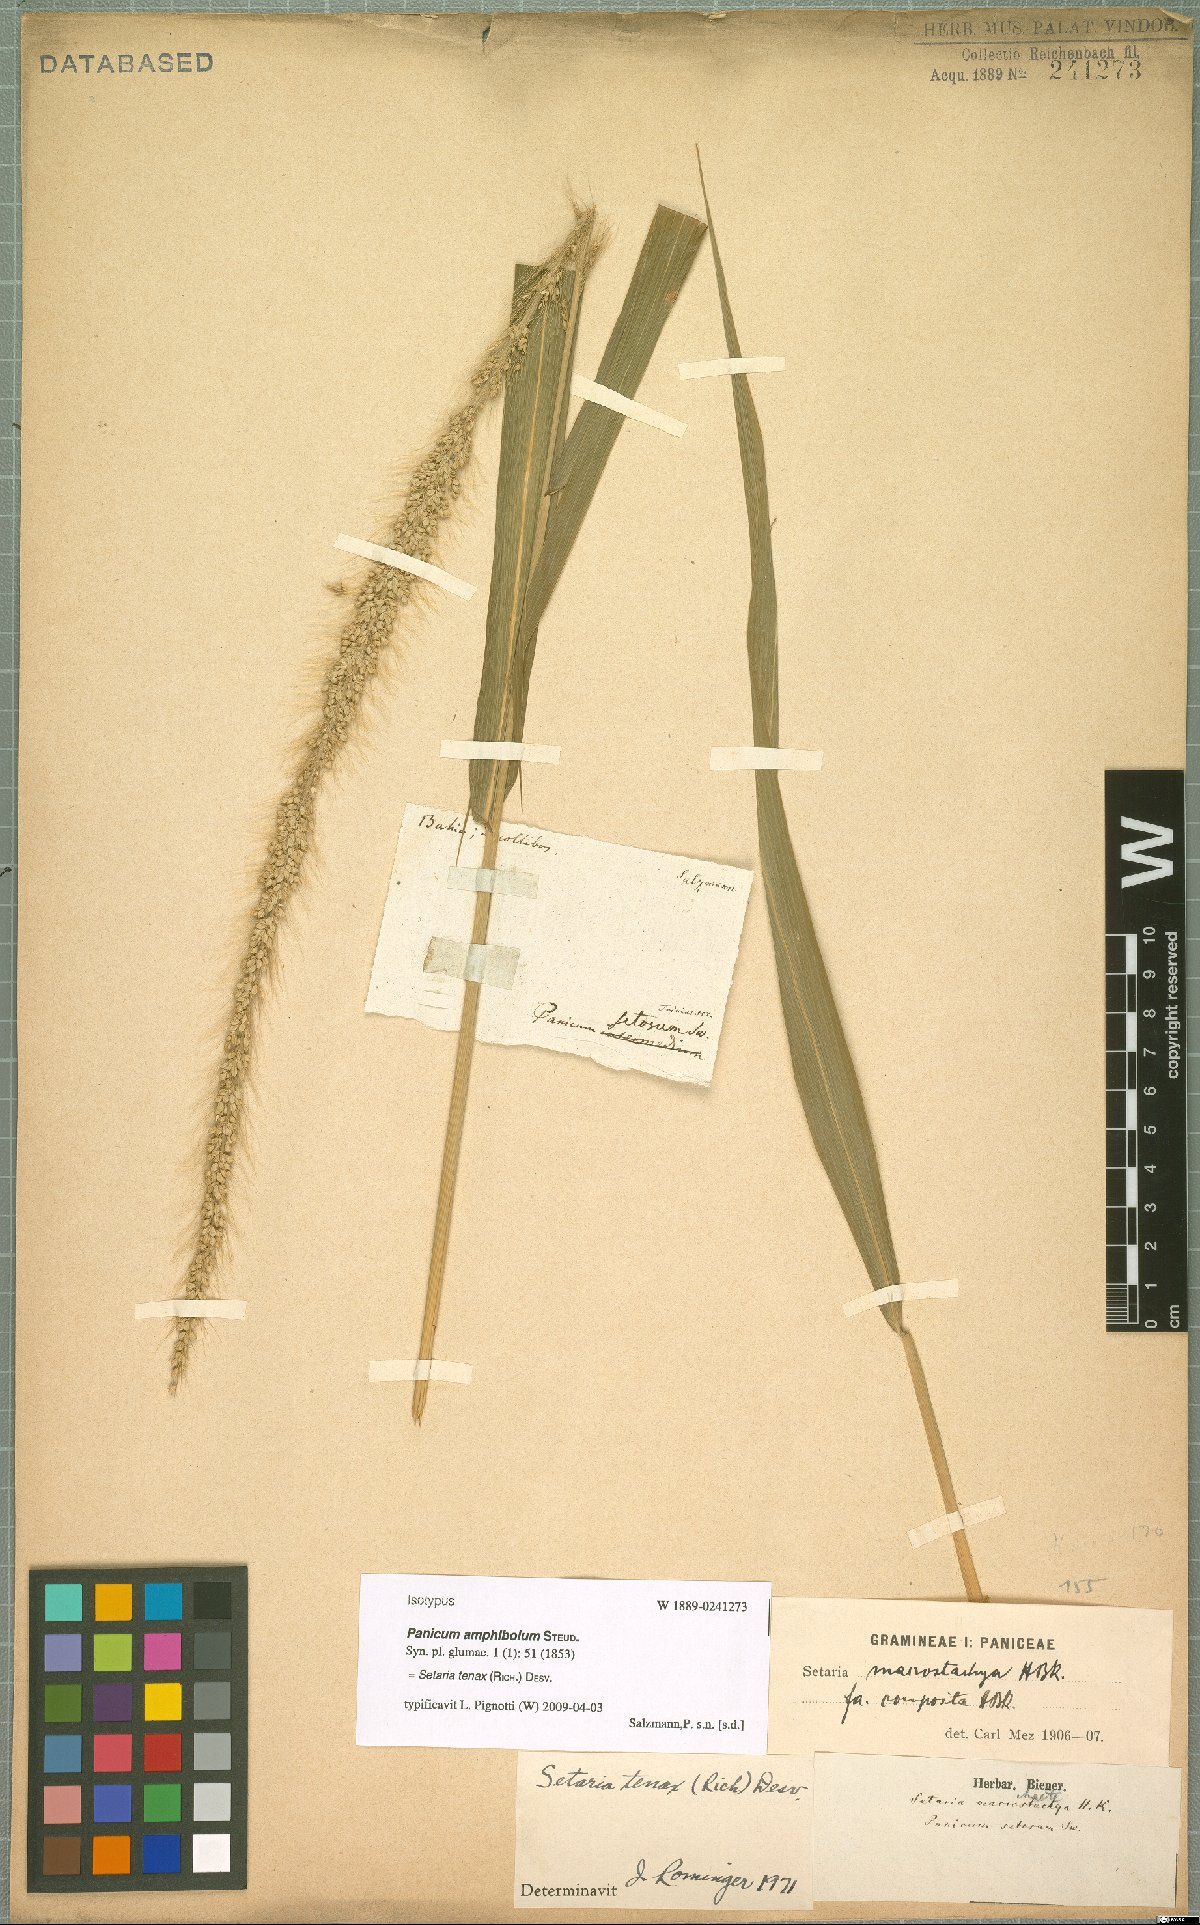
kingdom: Plantae
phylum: Tracheophyta
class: Liliopsida
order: Poales
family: Poaceae
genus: Setaria
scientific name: Setaria tenax
